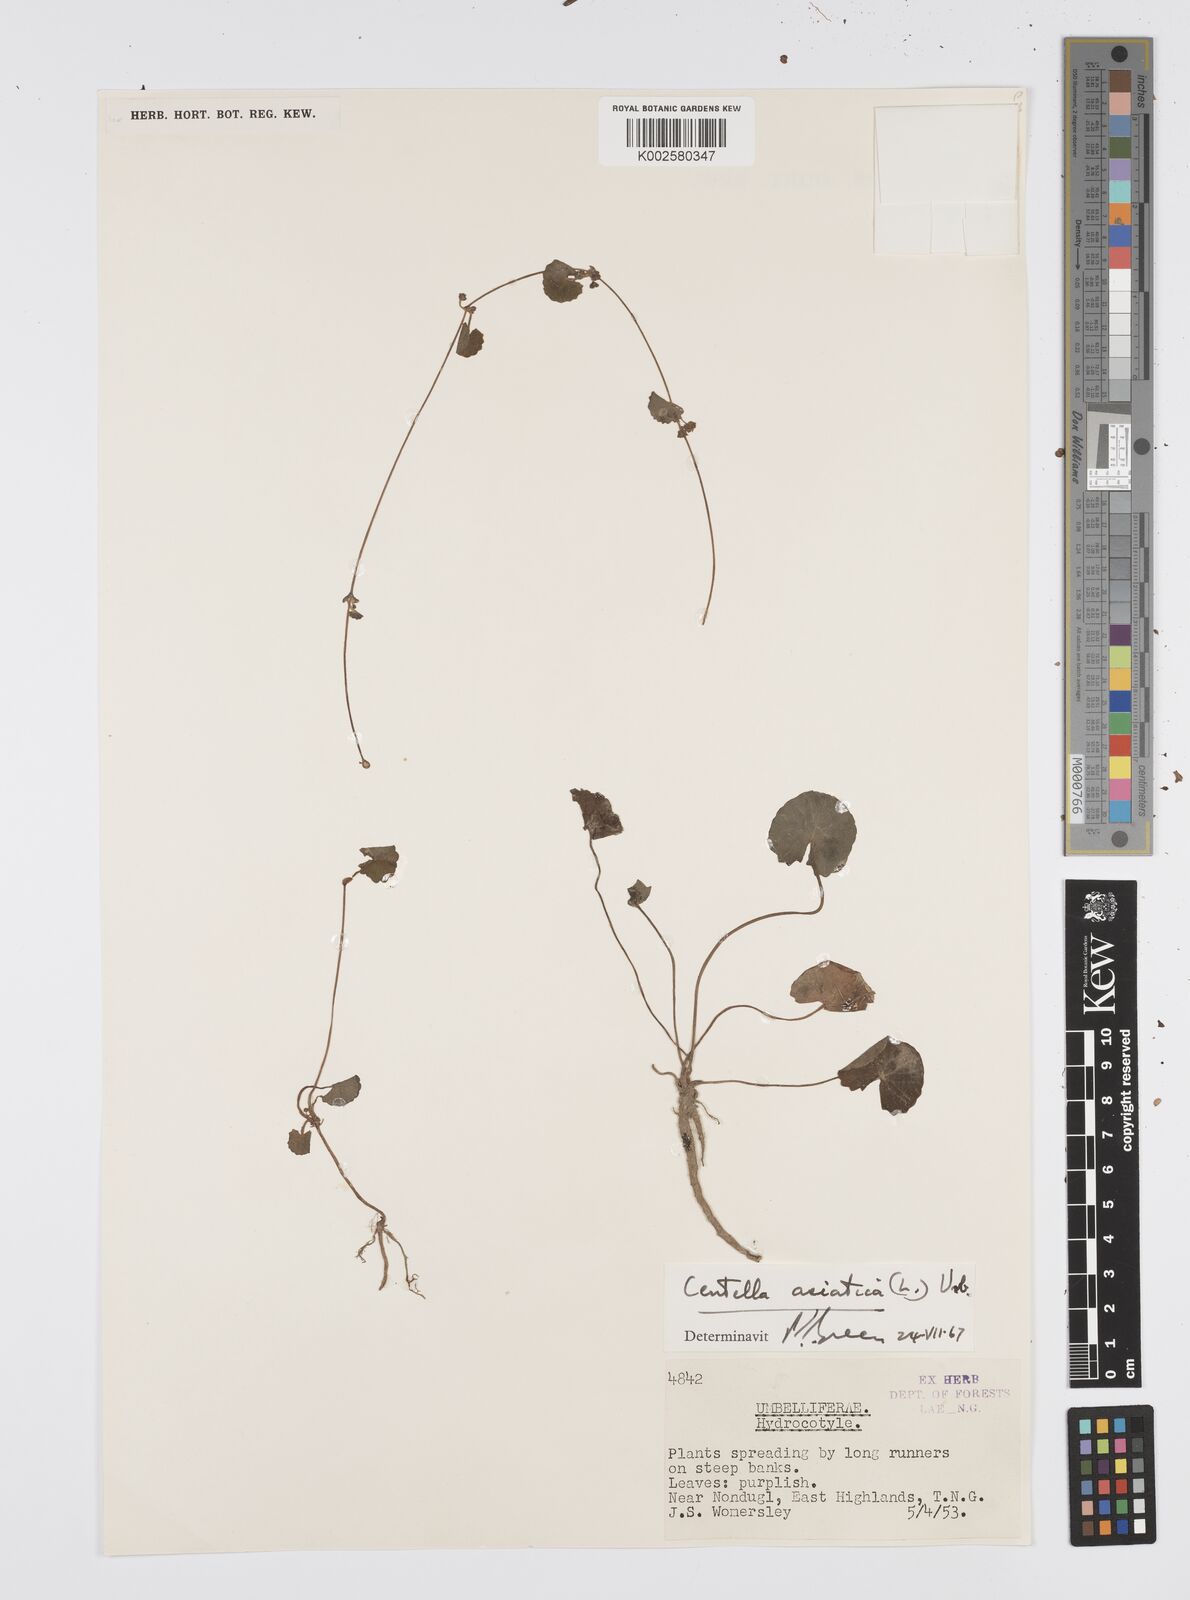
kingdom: Plantae
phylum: Tracheophyta
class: Magnoliopsida
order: Apiales
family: Apiaceae
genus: Centella
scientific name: Centella asiatica
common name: Spadeleaf
